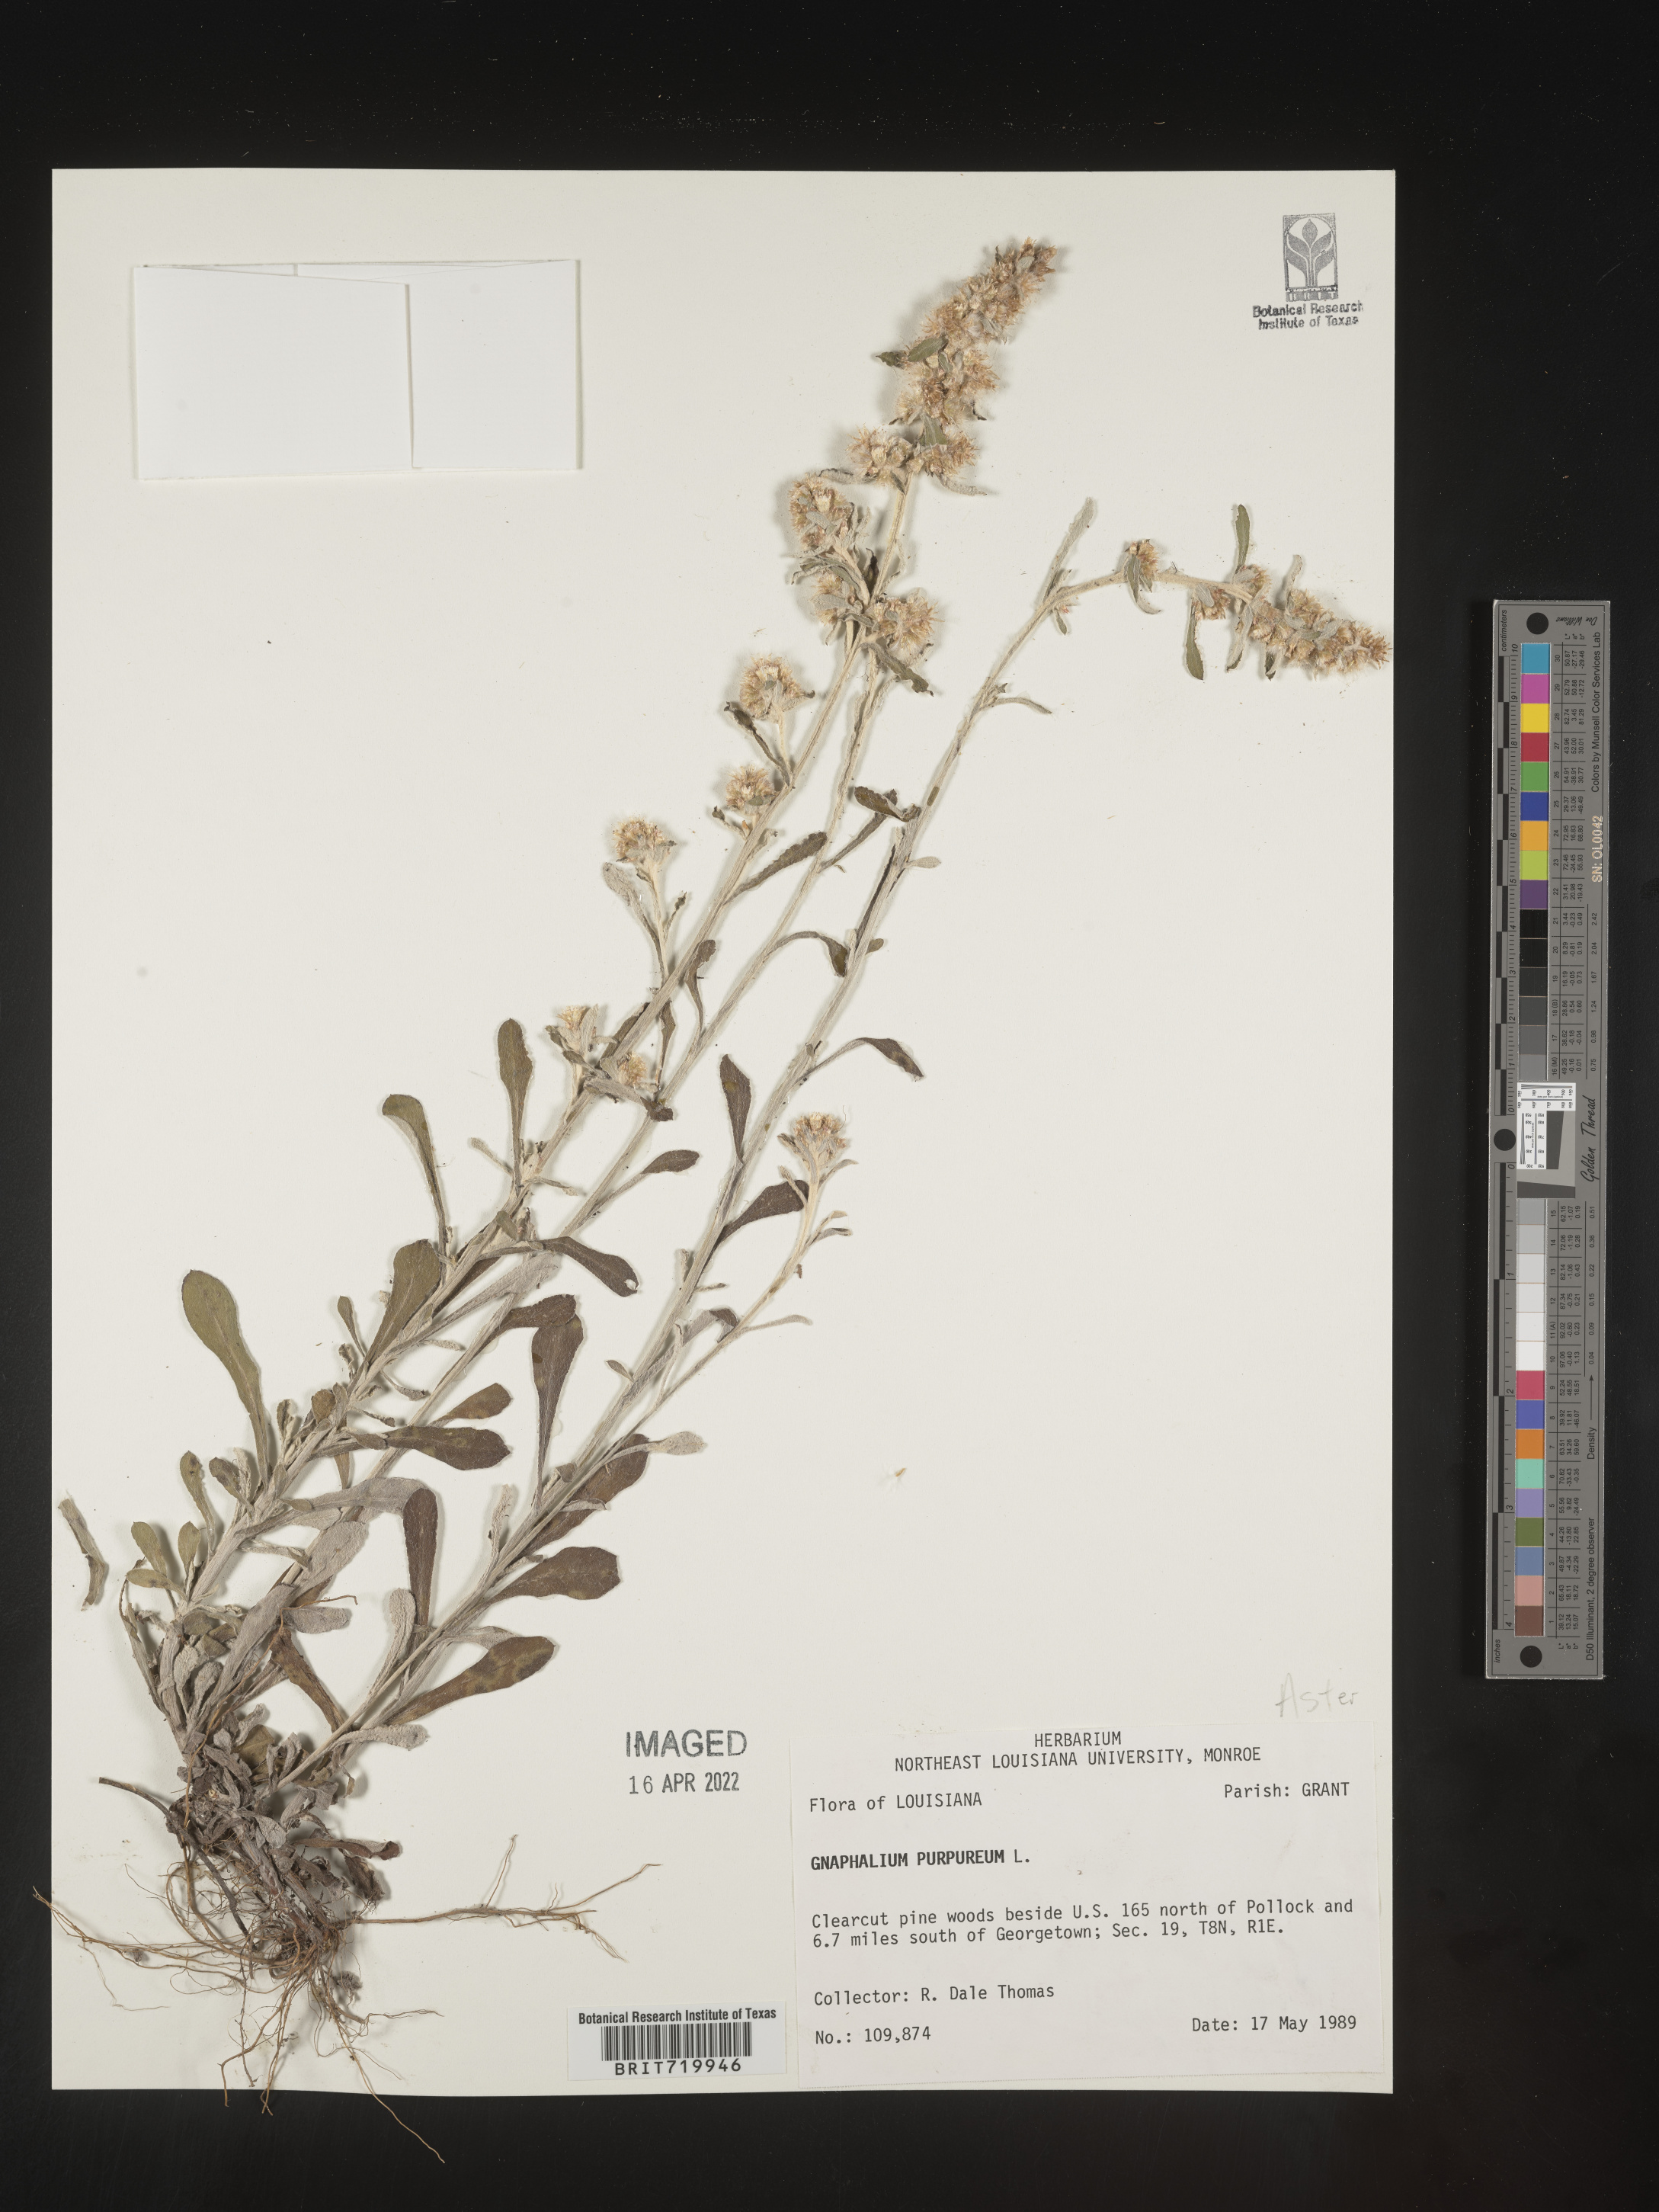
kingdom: Plantae
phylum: Tracheophyta
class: Magnoliopsida
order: Asterales
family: Asteraceae
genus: Gamochaeta
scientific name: Gamochaeta purpurea
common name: Purple cudweed
